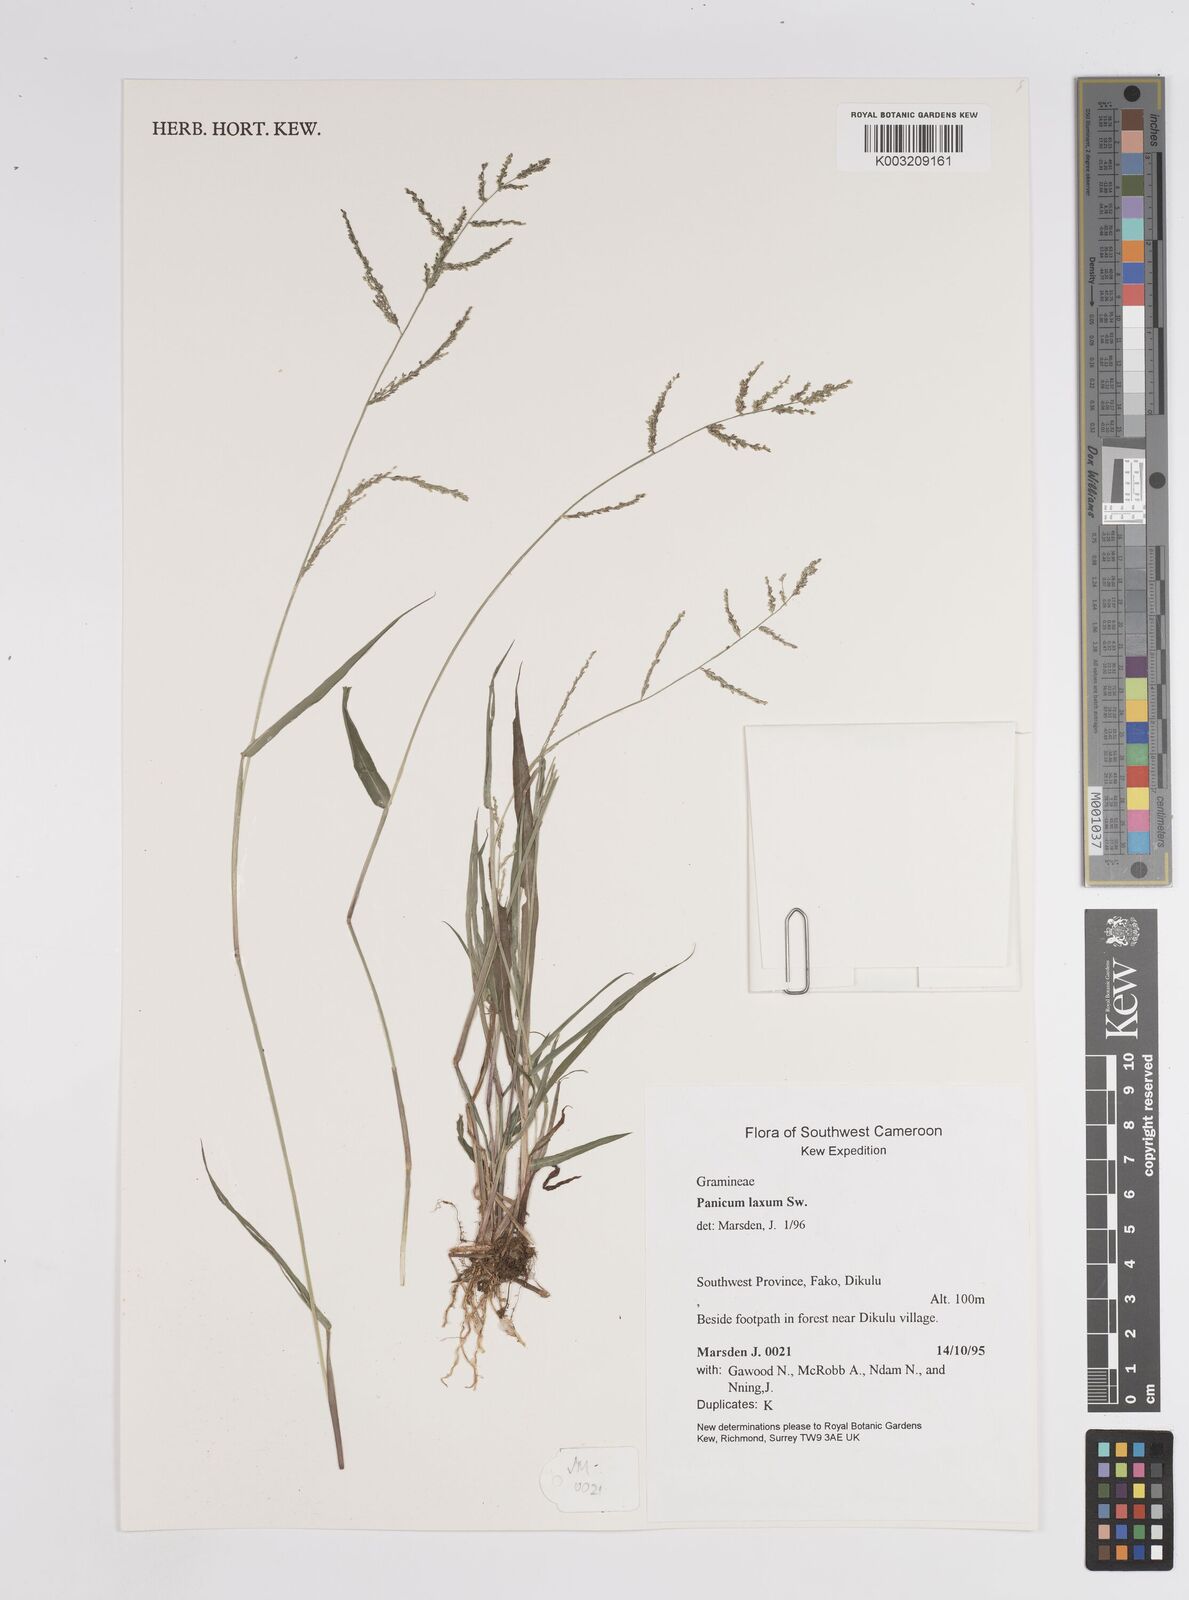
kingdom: Plantae
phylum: Tracheophyta
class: Liliopsida
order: Poales
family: Poaceae
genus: Steinchisma
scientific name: Steinchisma laxum
